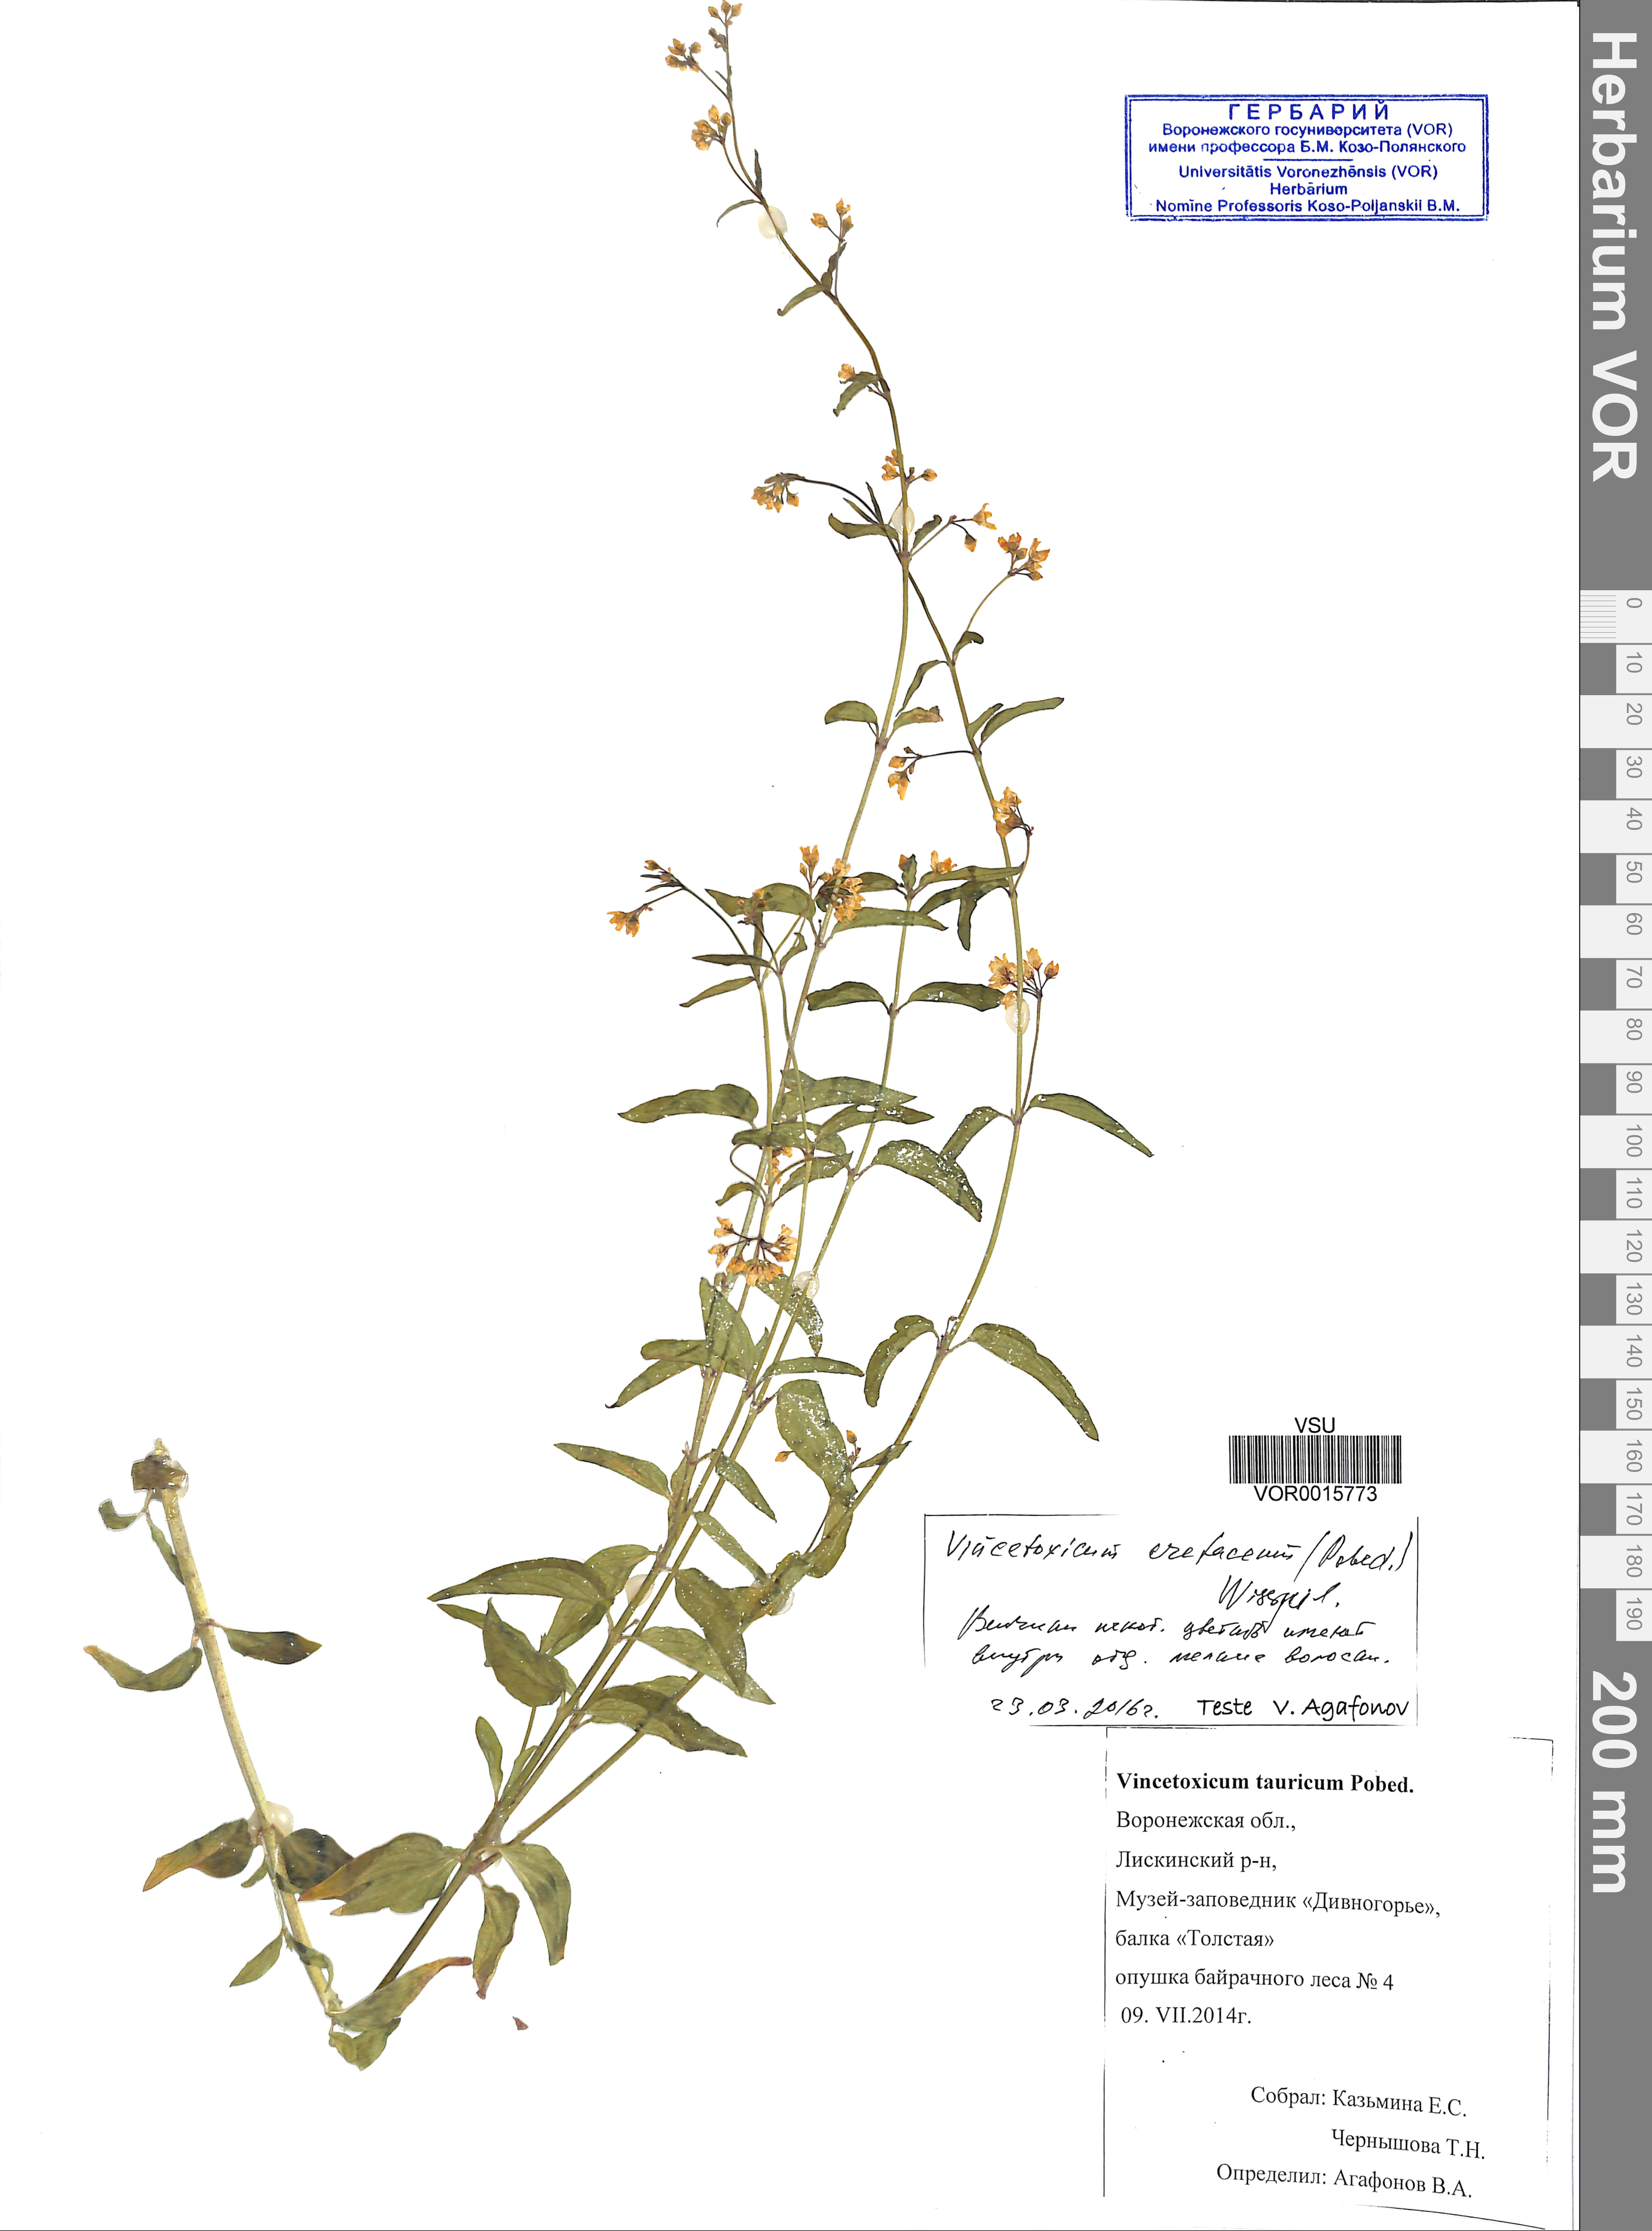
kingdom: Plantae
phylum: Tracheophyta
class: Magnoliopsida
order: Gentianales
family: Apocynaceae
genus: Vincetoxicum
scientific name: Vincetoxicum hirundinaria
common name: White swallowwort
